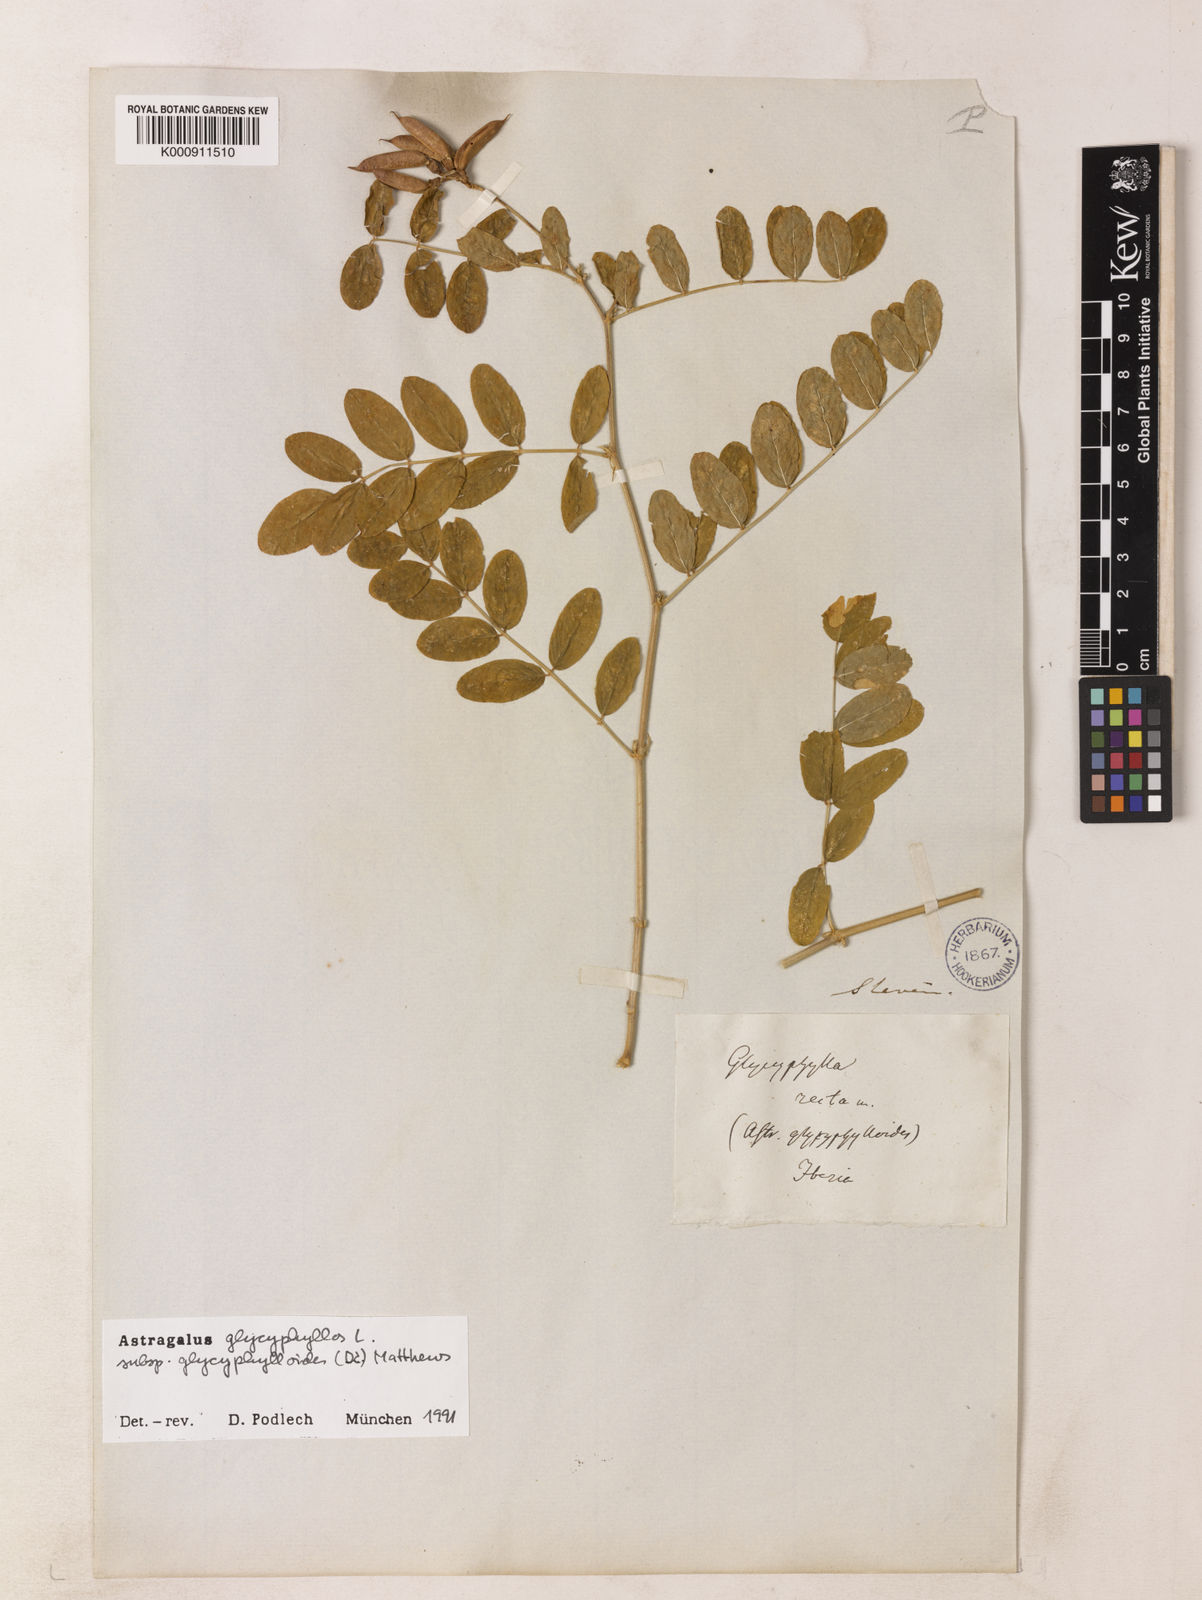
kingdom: Plantae
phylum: Tracheophyta
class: Magnoliopsida
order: Fabales
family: Fabaceae
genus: Astragalus
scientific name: Astragalus glycyphyllos
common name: Wild liquorice
